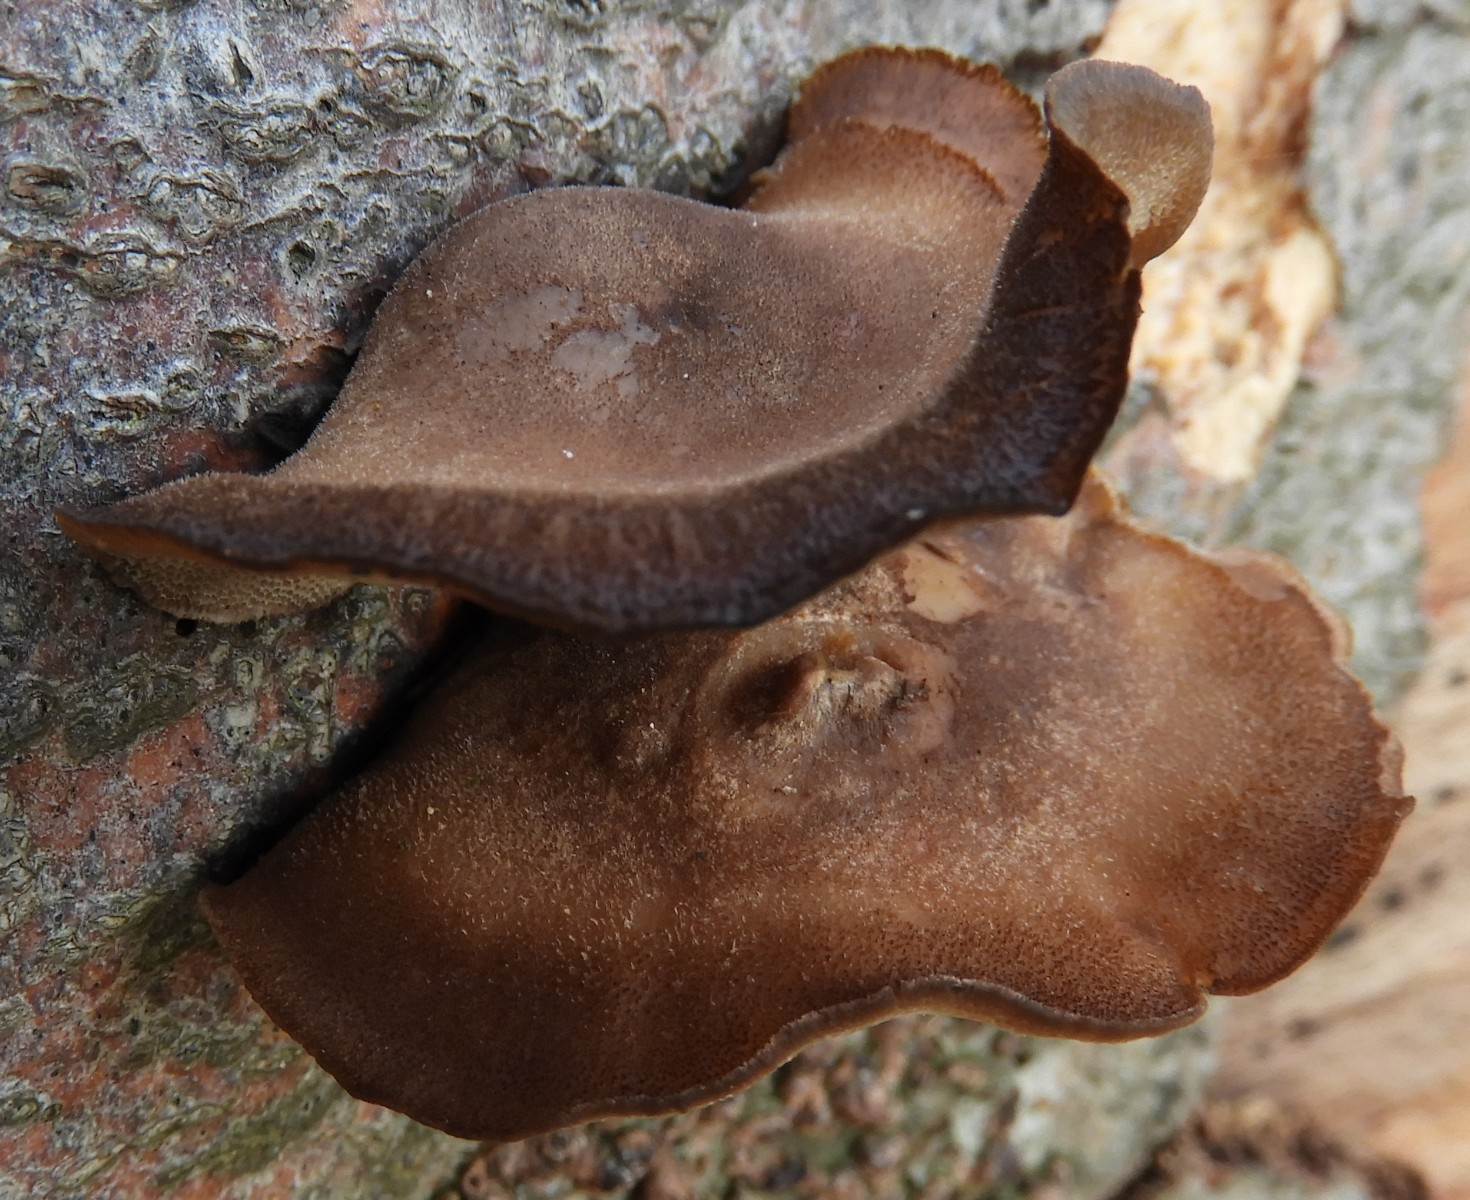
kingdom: Fungi
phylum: Basidiomycota
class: Agaricomycetes
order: Polyporales
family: Polyporaceae
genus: Lentinus
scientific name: Lentinus brumalis
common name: vinter-stilkporesvamp
